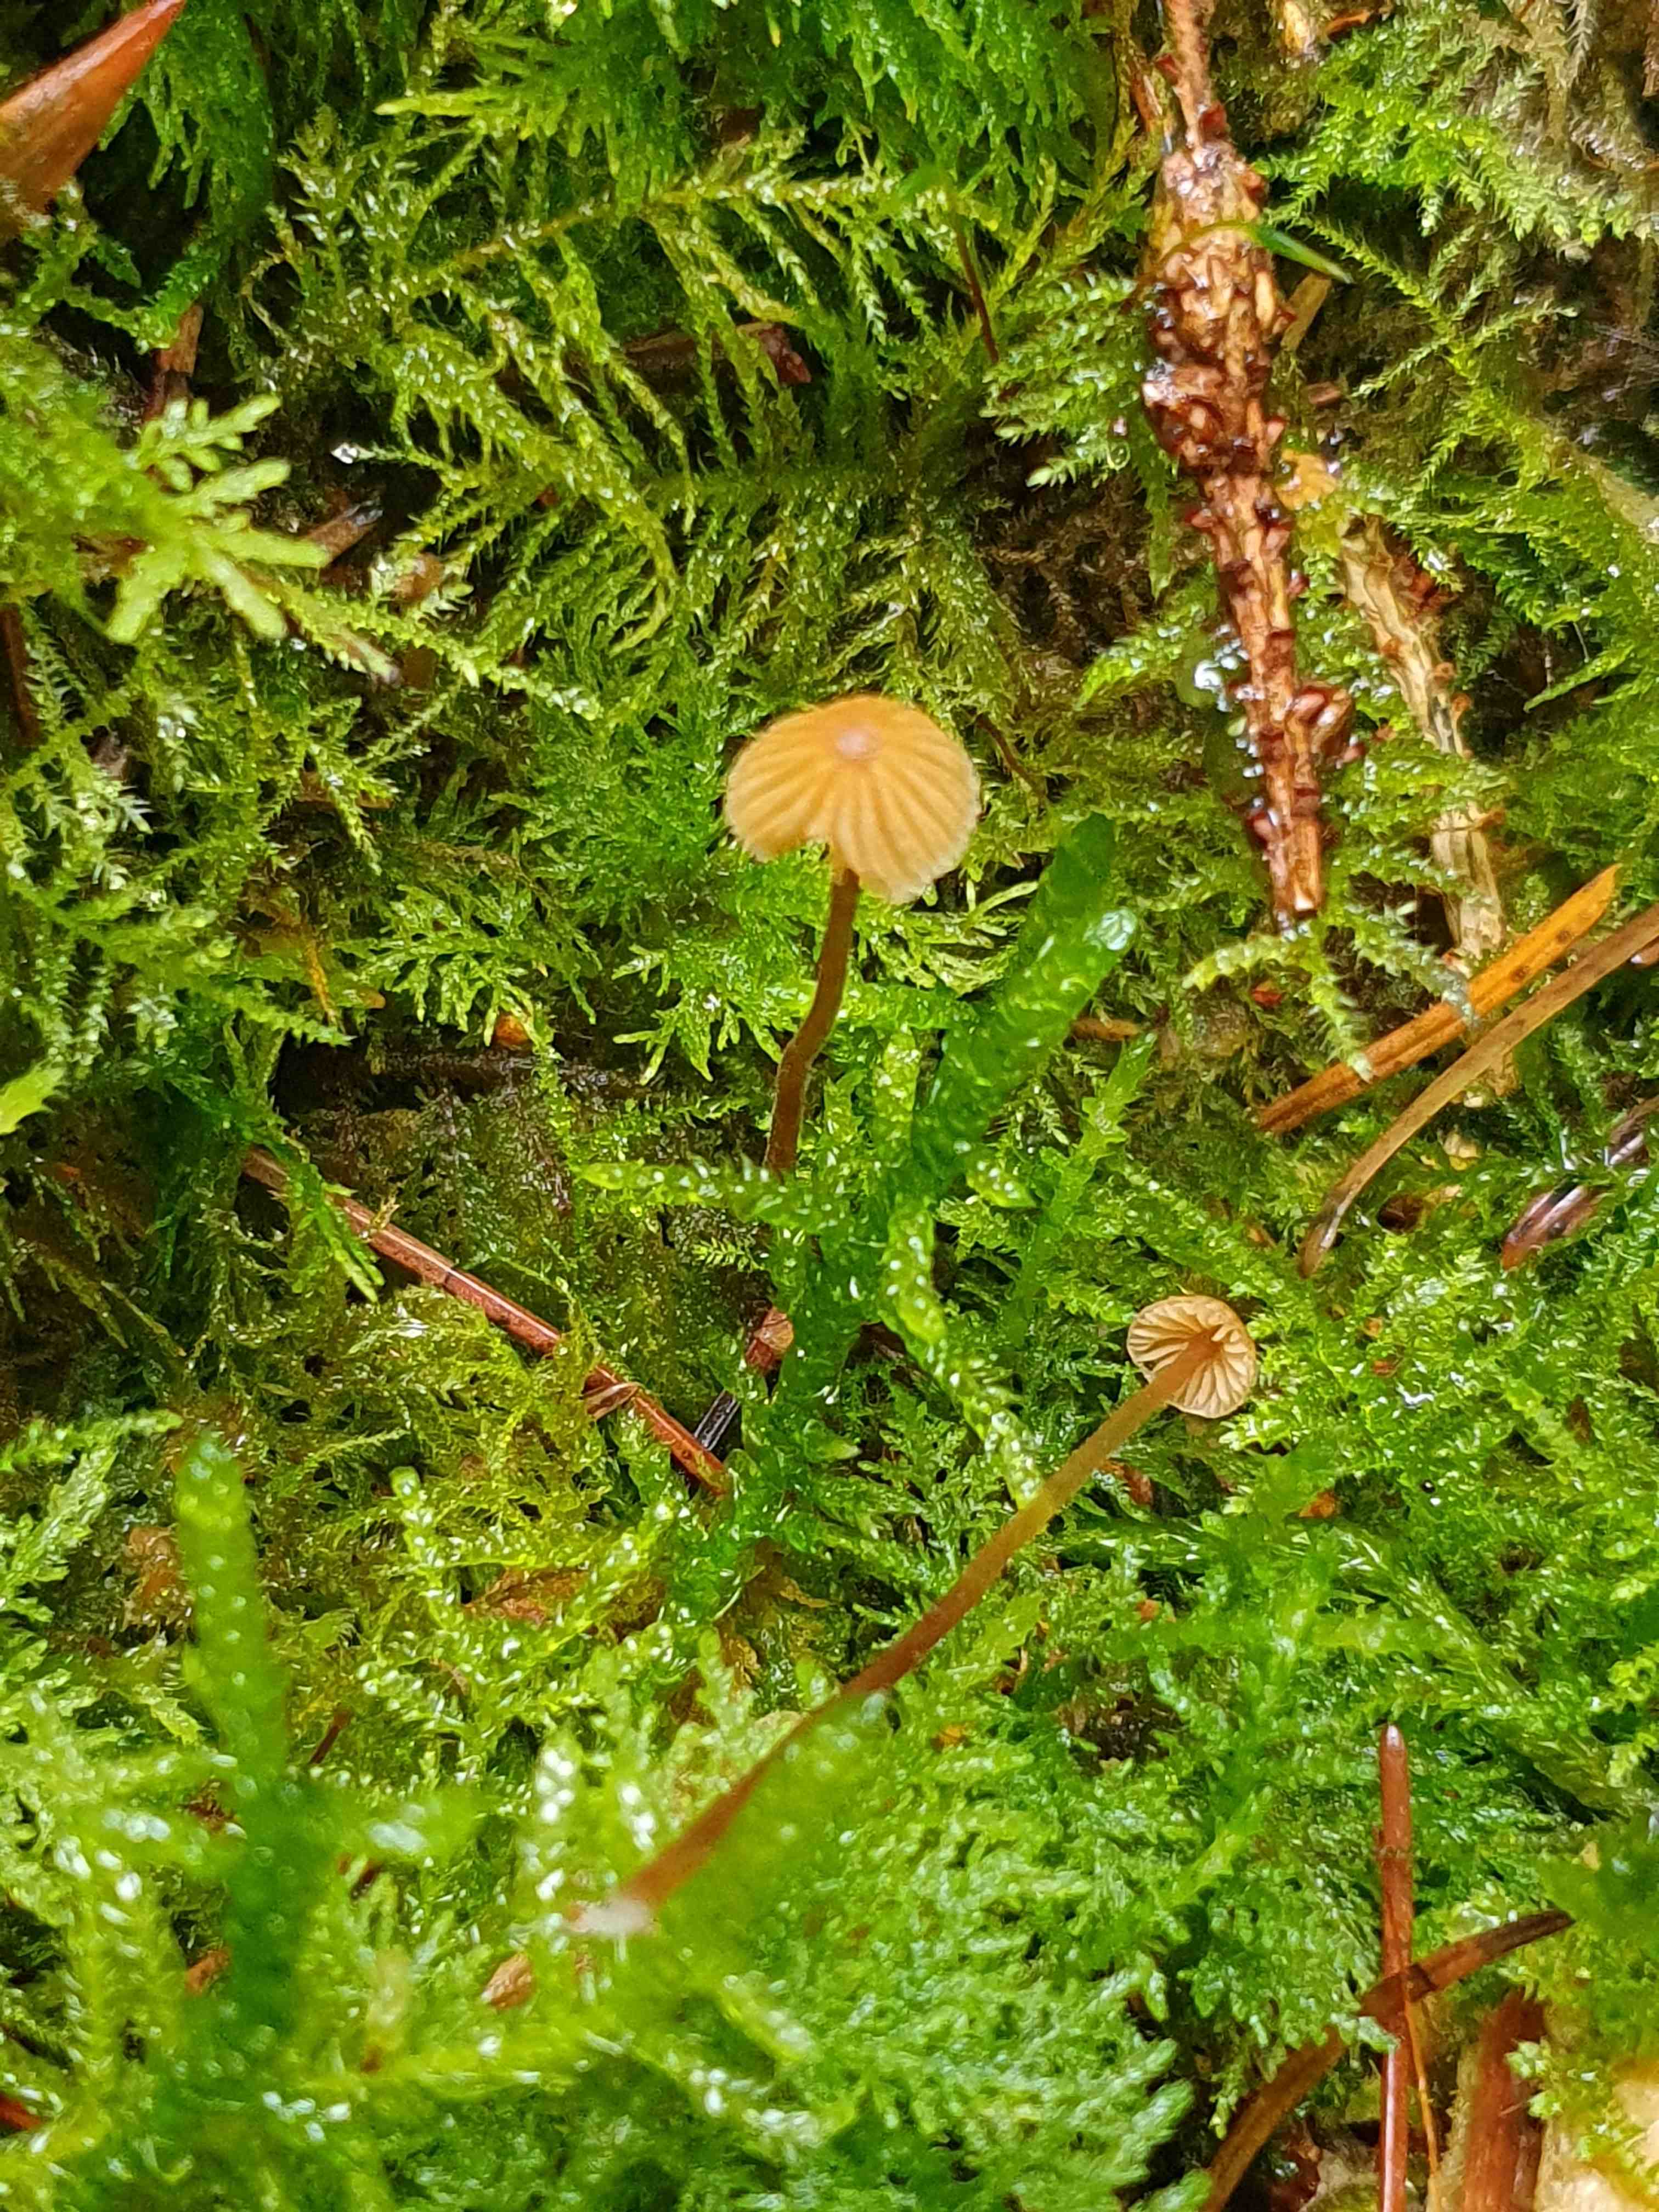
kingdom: Fungi
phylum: Basidiomycota
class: Agaricomycetes
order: Agaricales
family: Hymenogastraceae
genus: Galerina
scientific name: Galerina
